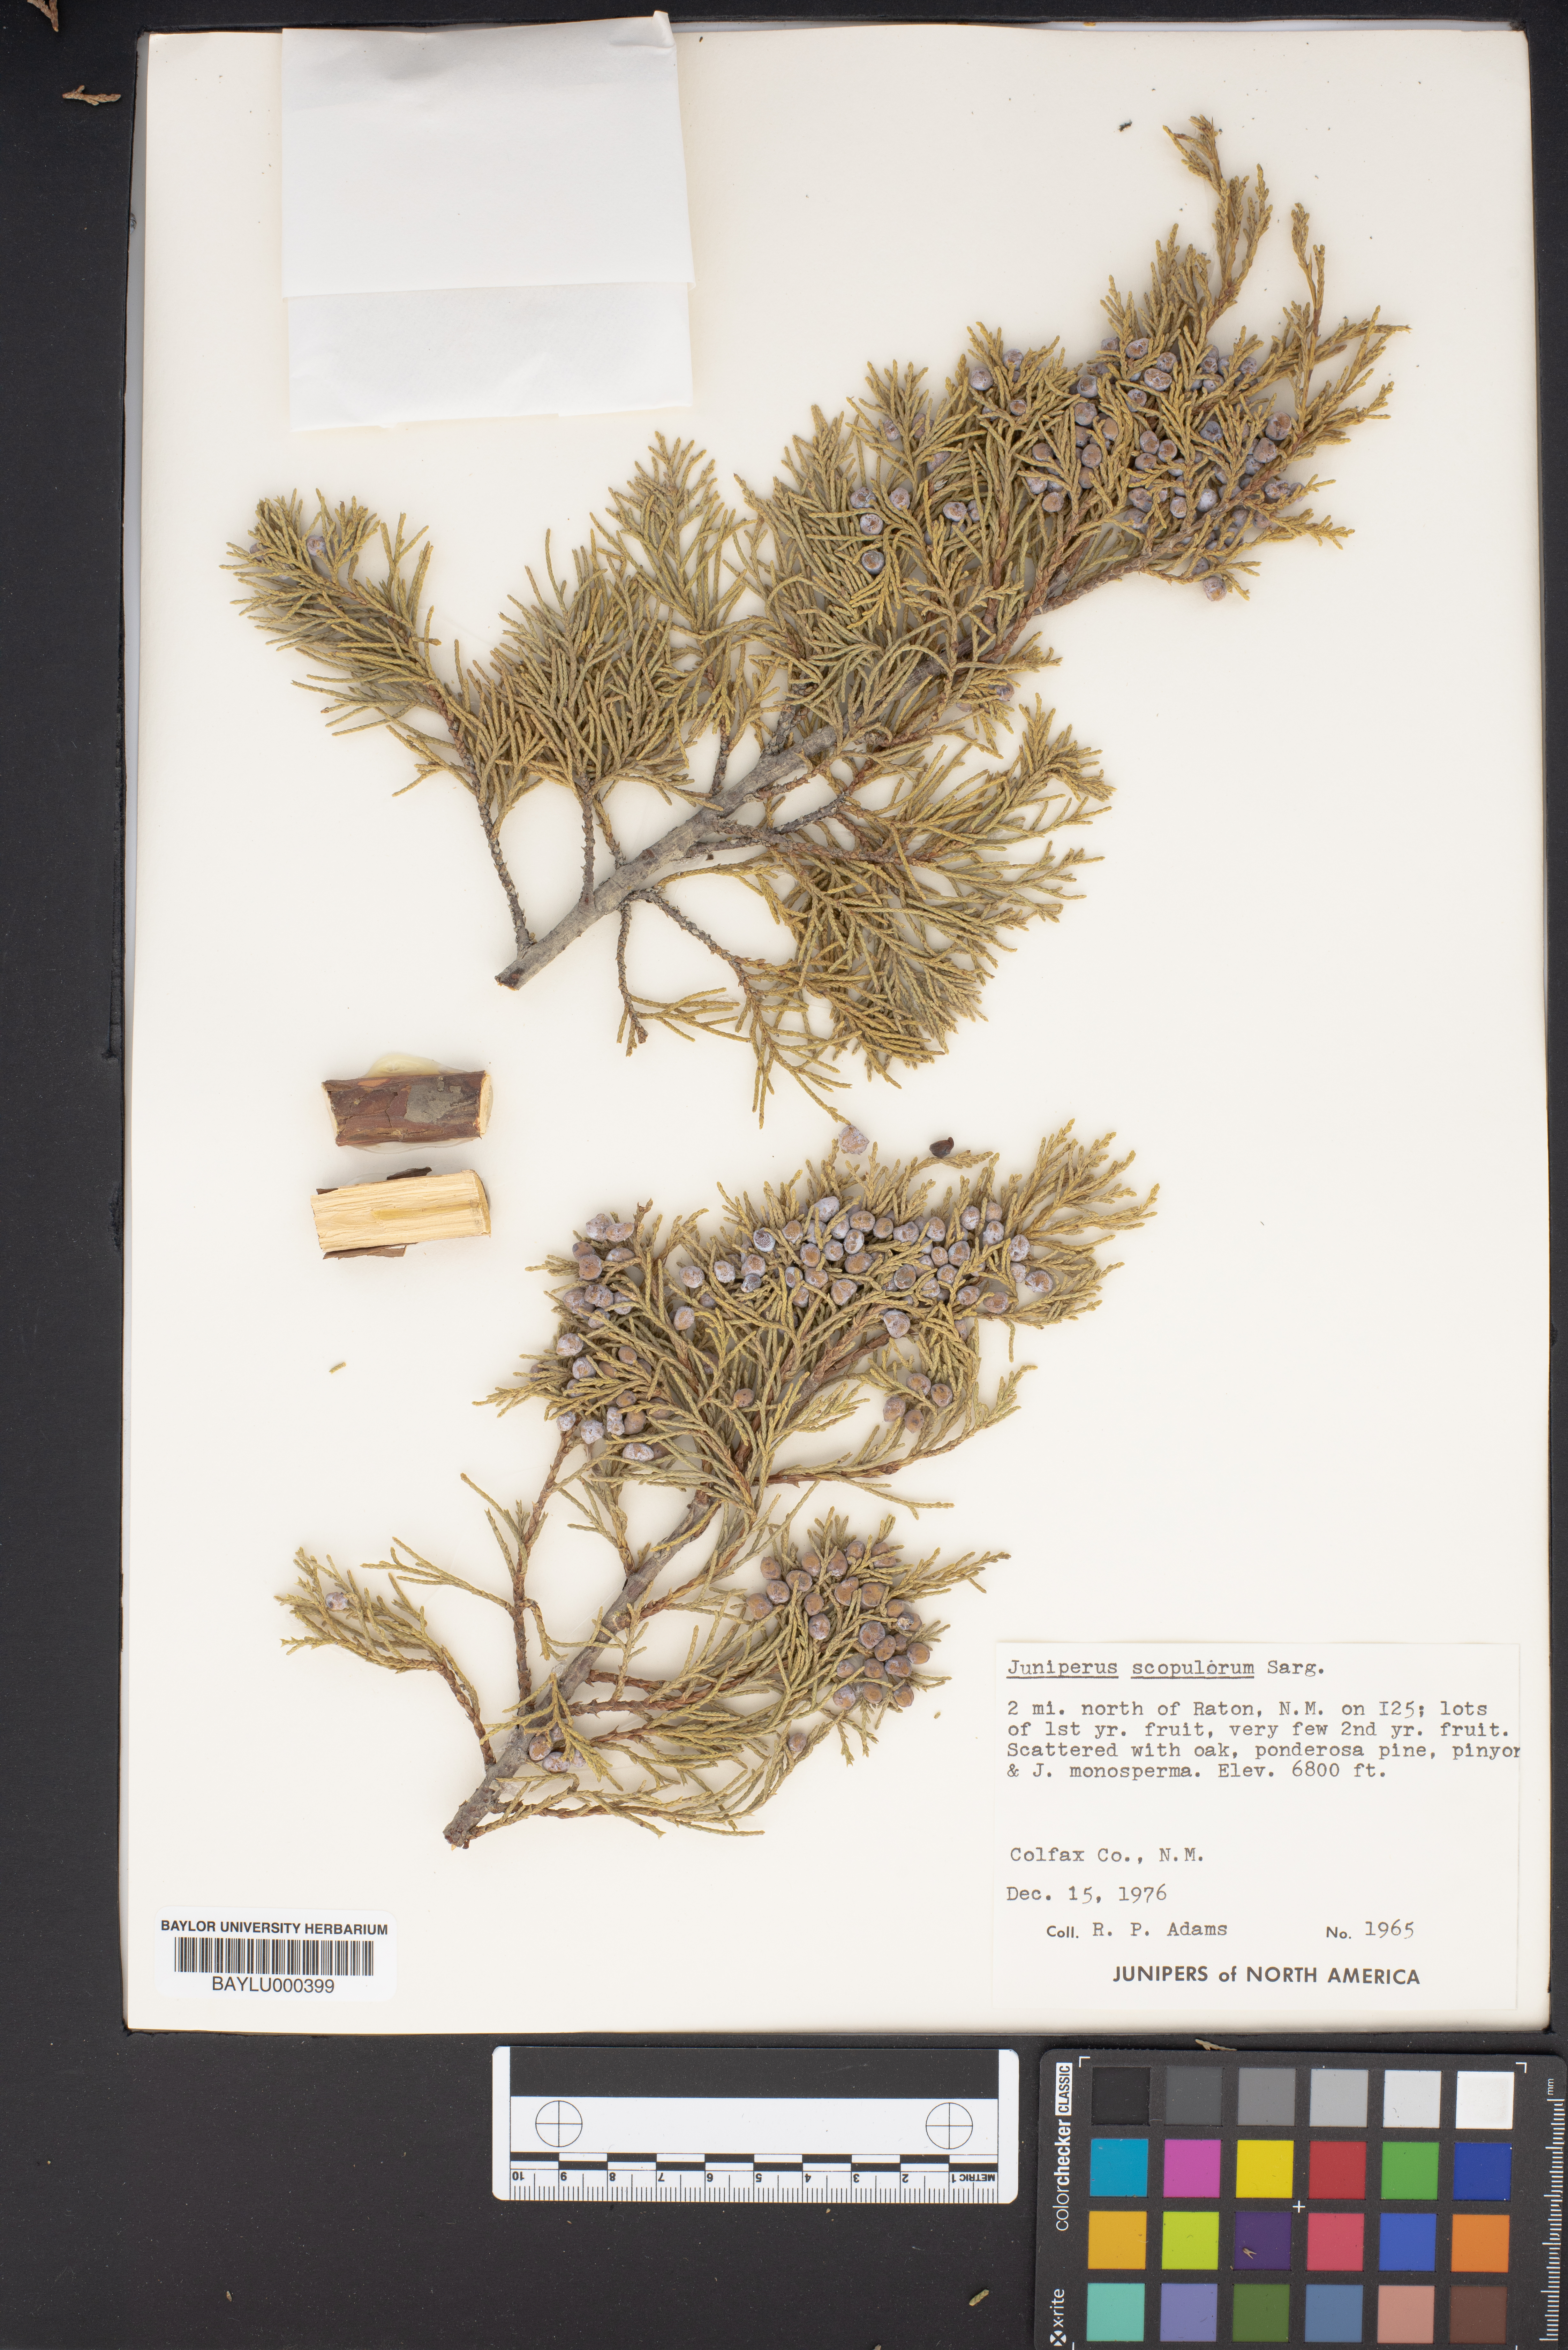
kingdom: Plantae
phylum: Tracheophyta
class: Pinopsida
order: Pinales
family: Cupressaceae
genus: Juniperus
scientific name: Juniperus scopulorum
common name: Rocky mountain juniper
